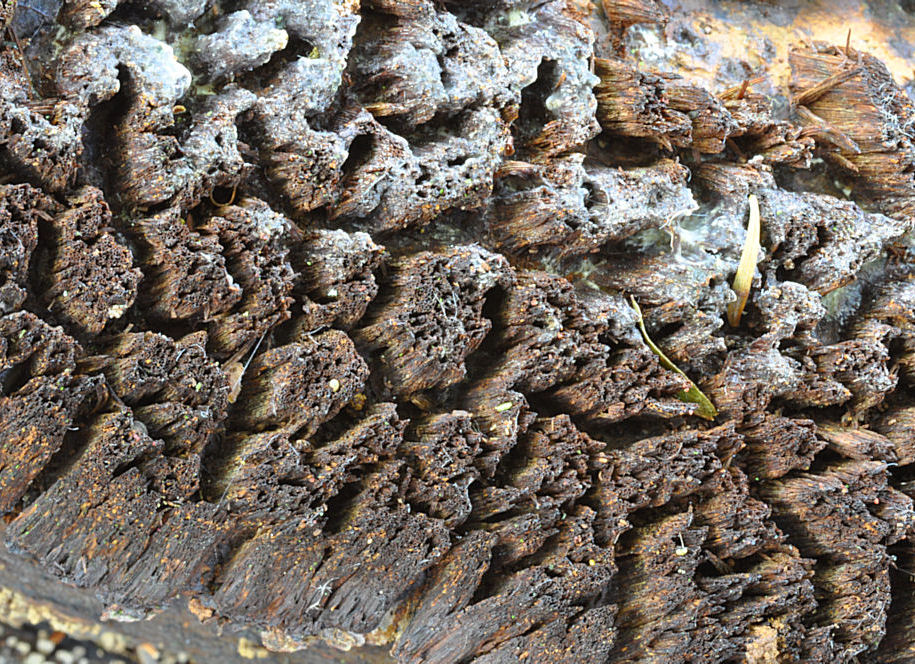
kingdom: Fungi
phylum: Basidiomycota
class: Agaricomycetes
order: Hymenochaetales
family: Hymenochaetaceae
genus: Mensularia
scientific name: Mensularia nodulosa
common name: bøge-spejlporesvamp
